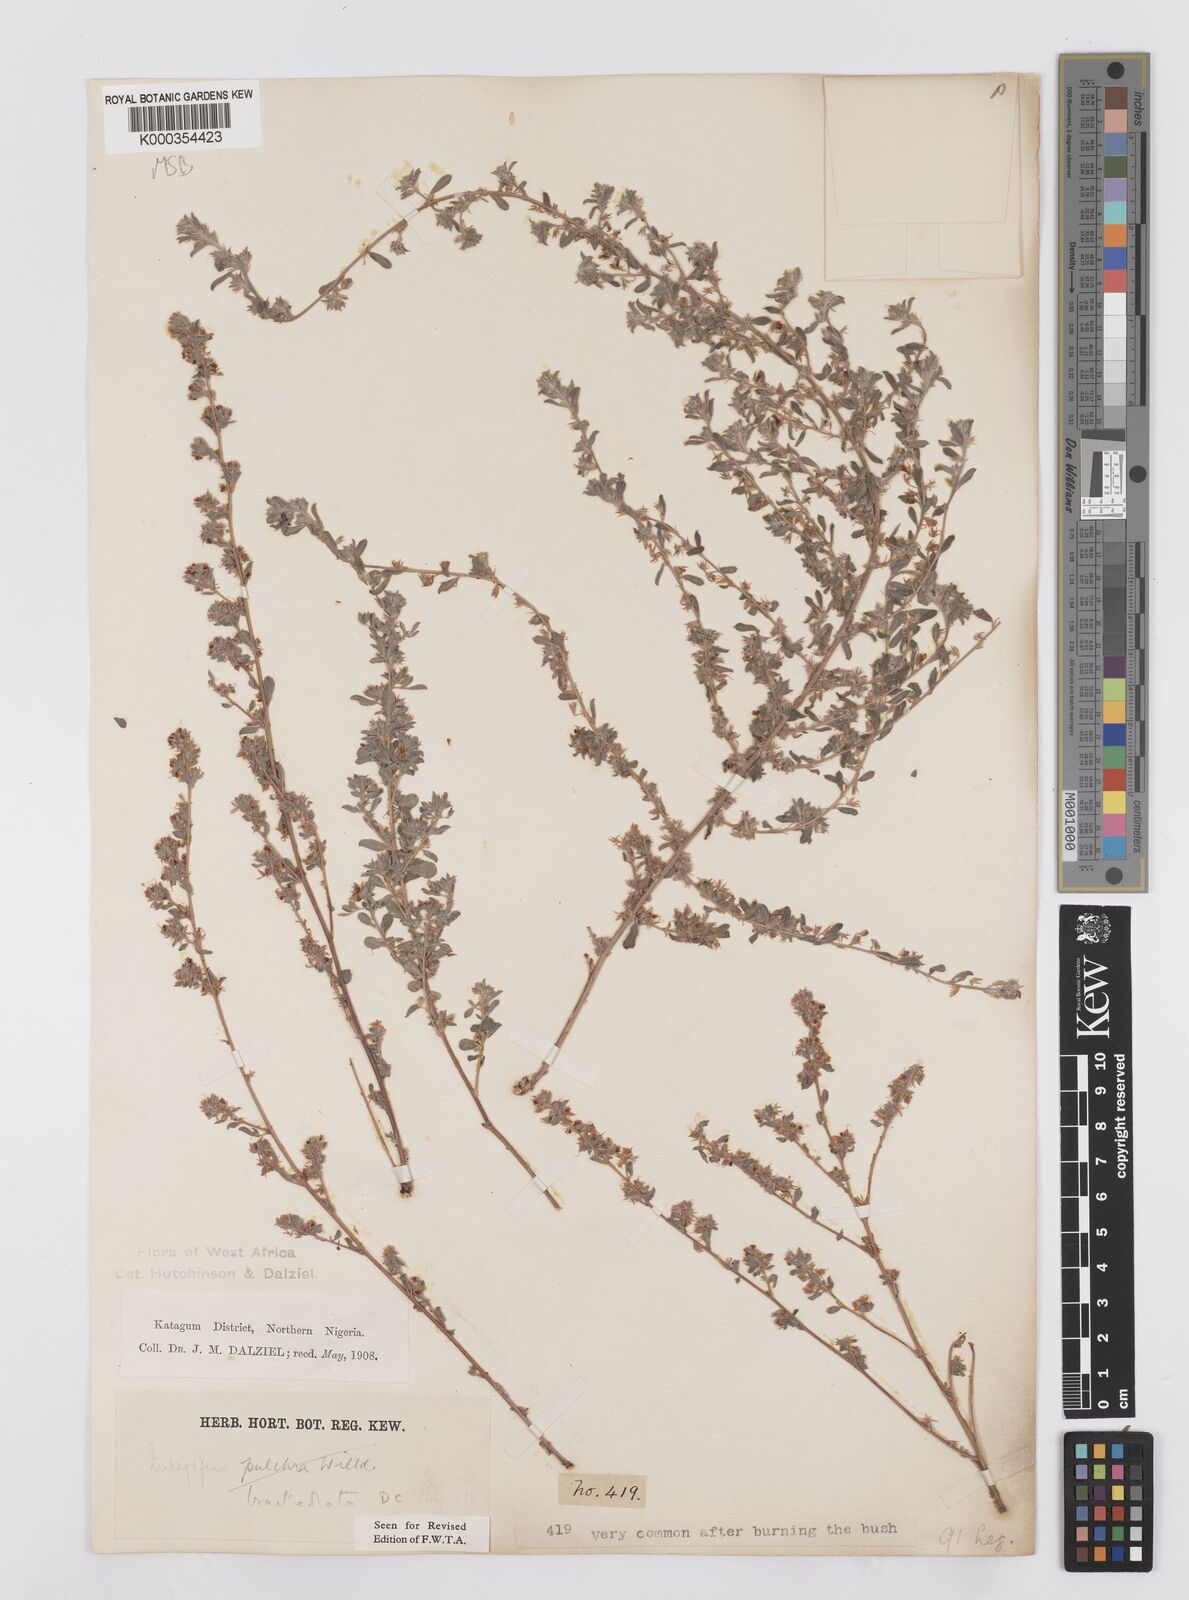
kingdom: Plantae
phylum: Tracheophyta
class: Magnoliopsida
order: Fabales
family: Fabaceae
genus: Indigofera
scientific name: Indigofera bracteolata
